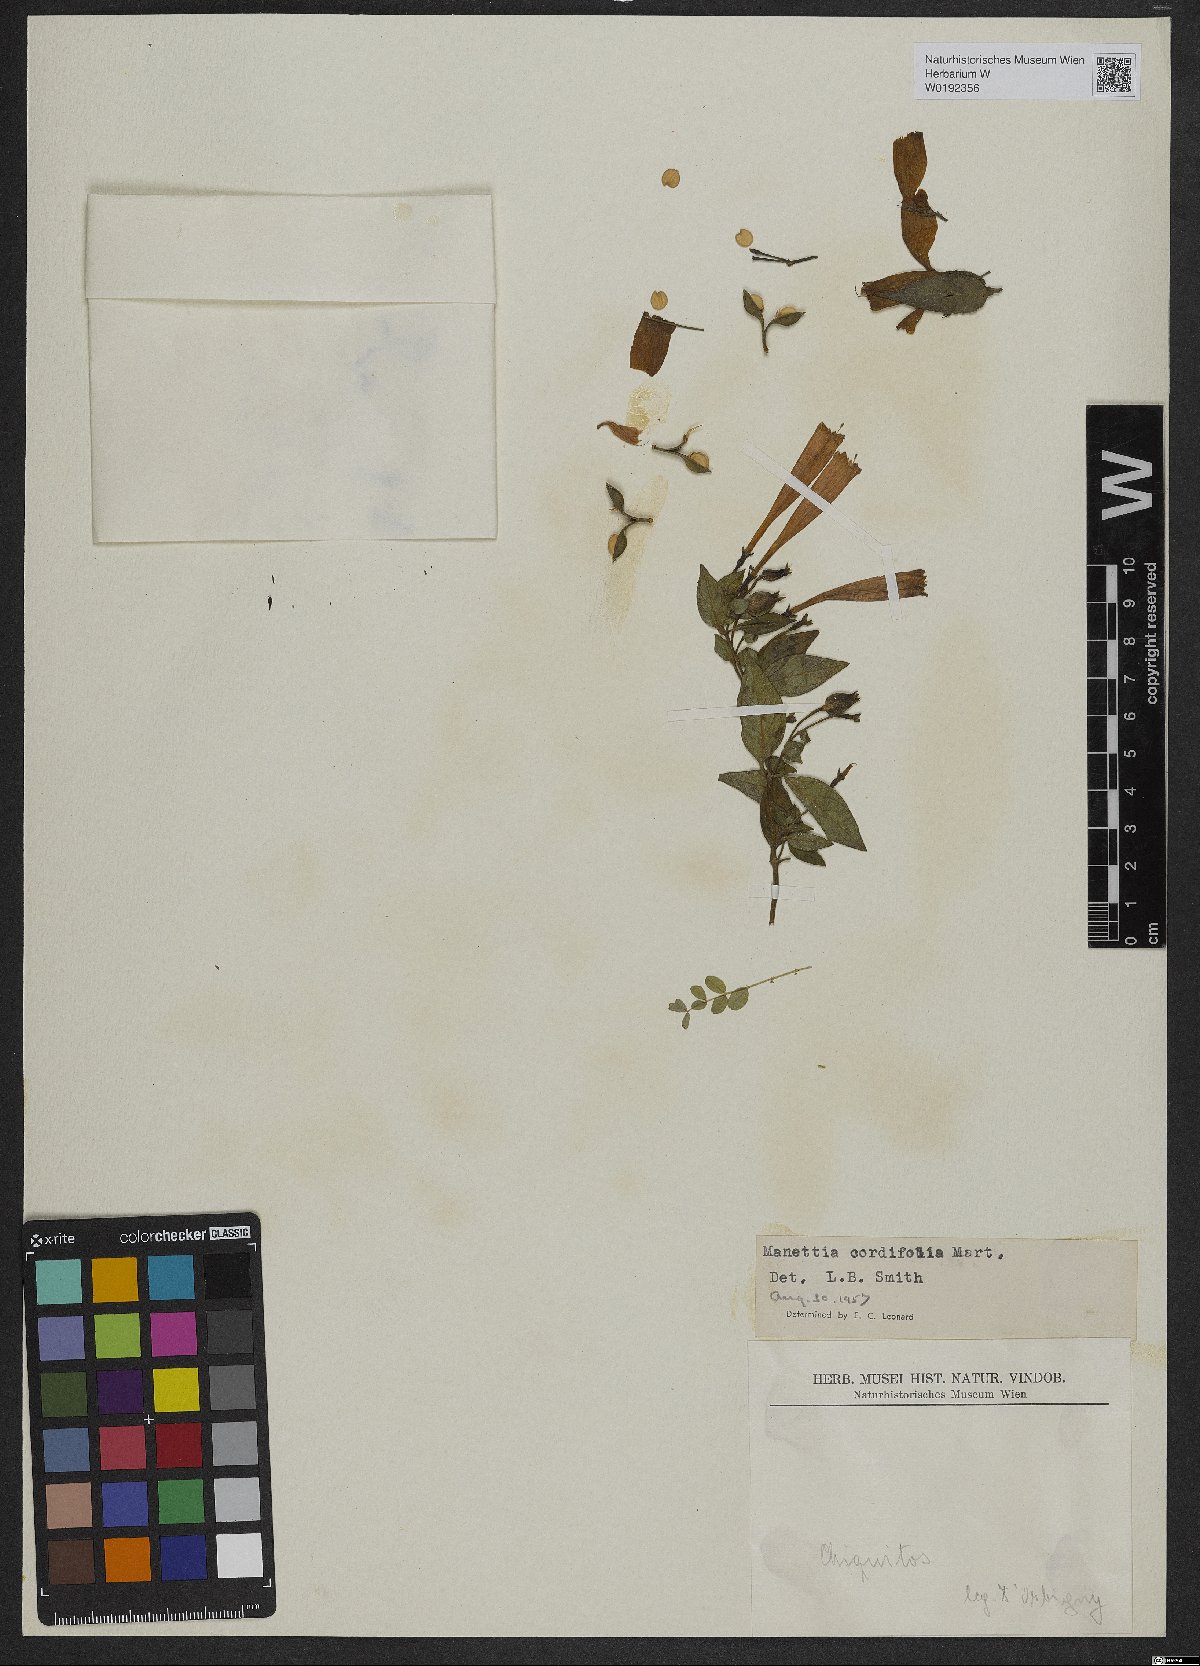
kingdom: Plantae
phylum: Tracheophyta
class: Magnoliopsida
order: Gentianales
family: Rubiaceae
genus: Manettia
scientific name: Manettia cordifolia
